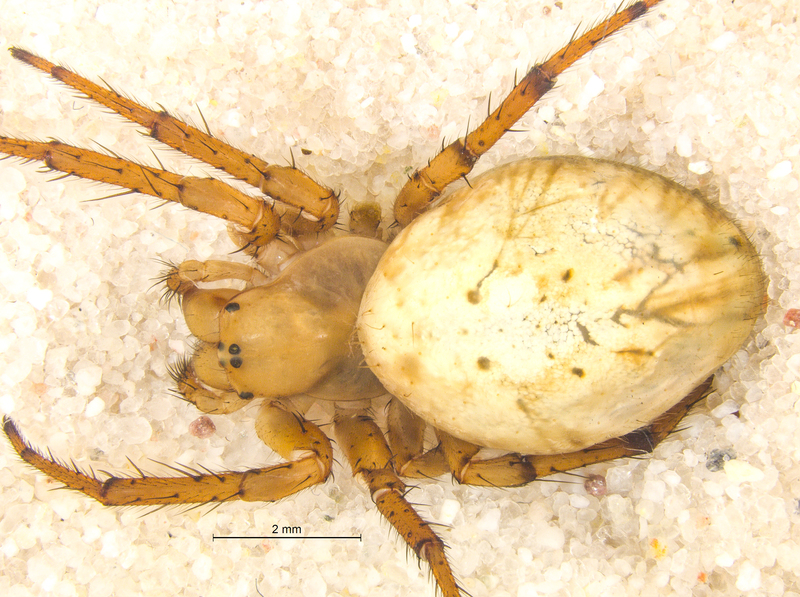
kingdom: Animalia
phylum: Arthropoda
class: Arachnida
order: Araneae
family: Araneidae
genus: Araniella
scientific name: Araniella alpica
